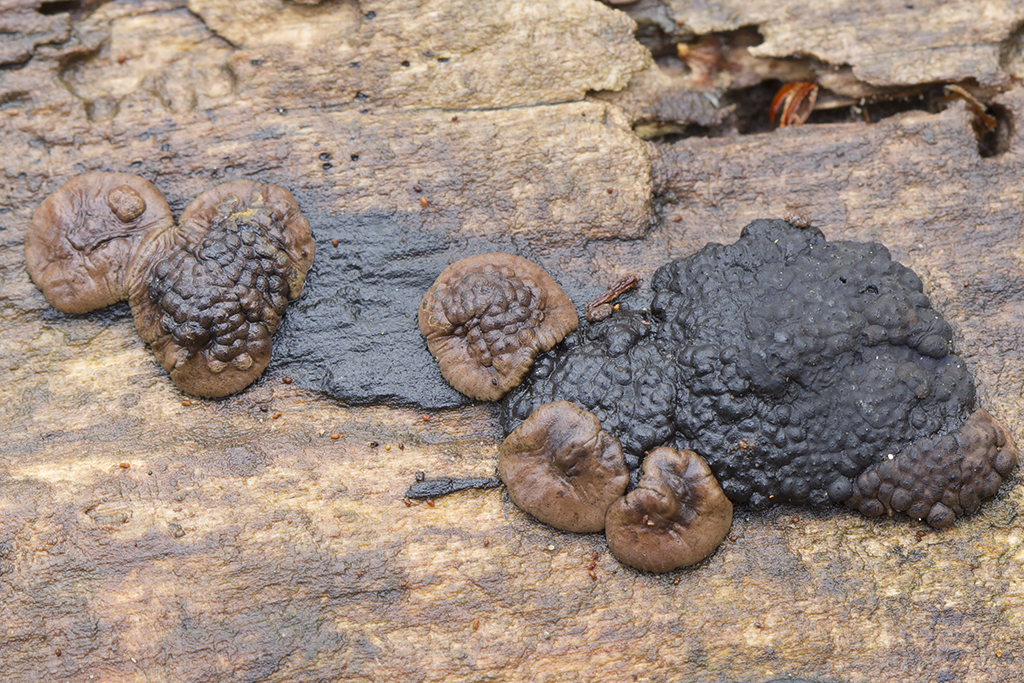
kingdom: Fungi
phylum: Ascomycota
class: Sordariomycetes
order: Xylariales
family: Hypoxylaceae
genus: Jackrogersella
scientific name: Jackrogersella cohaerens
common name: sammenflydende kulbær
